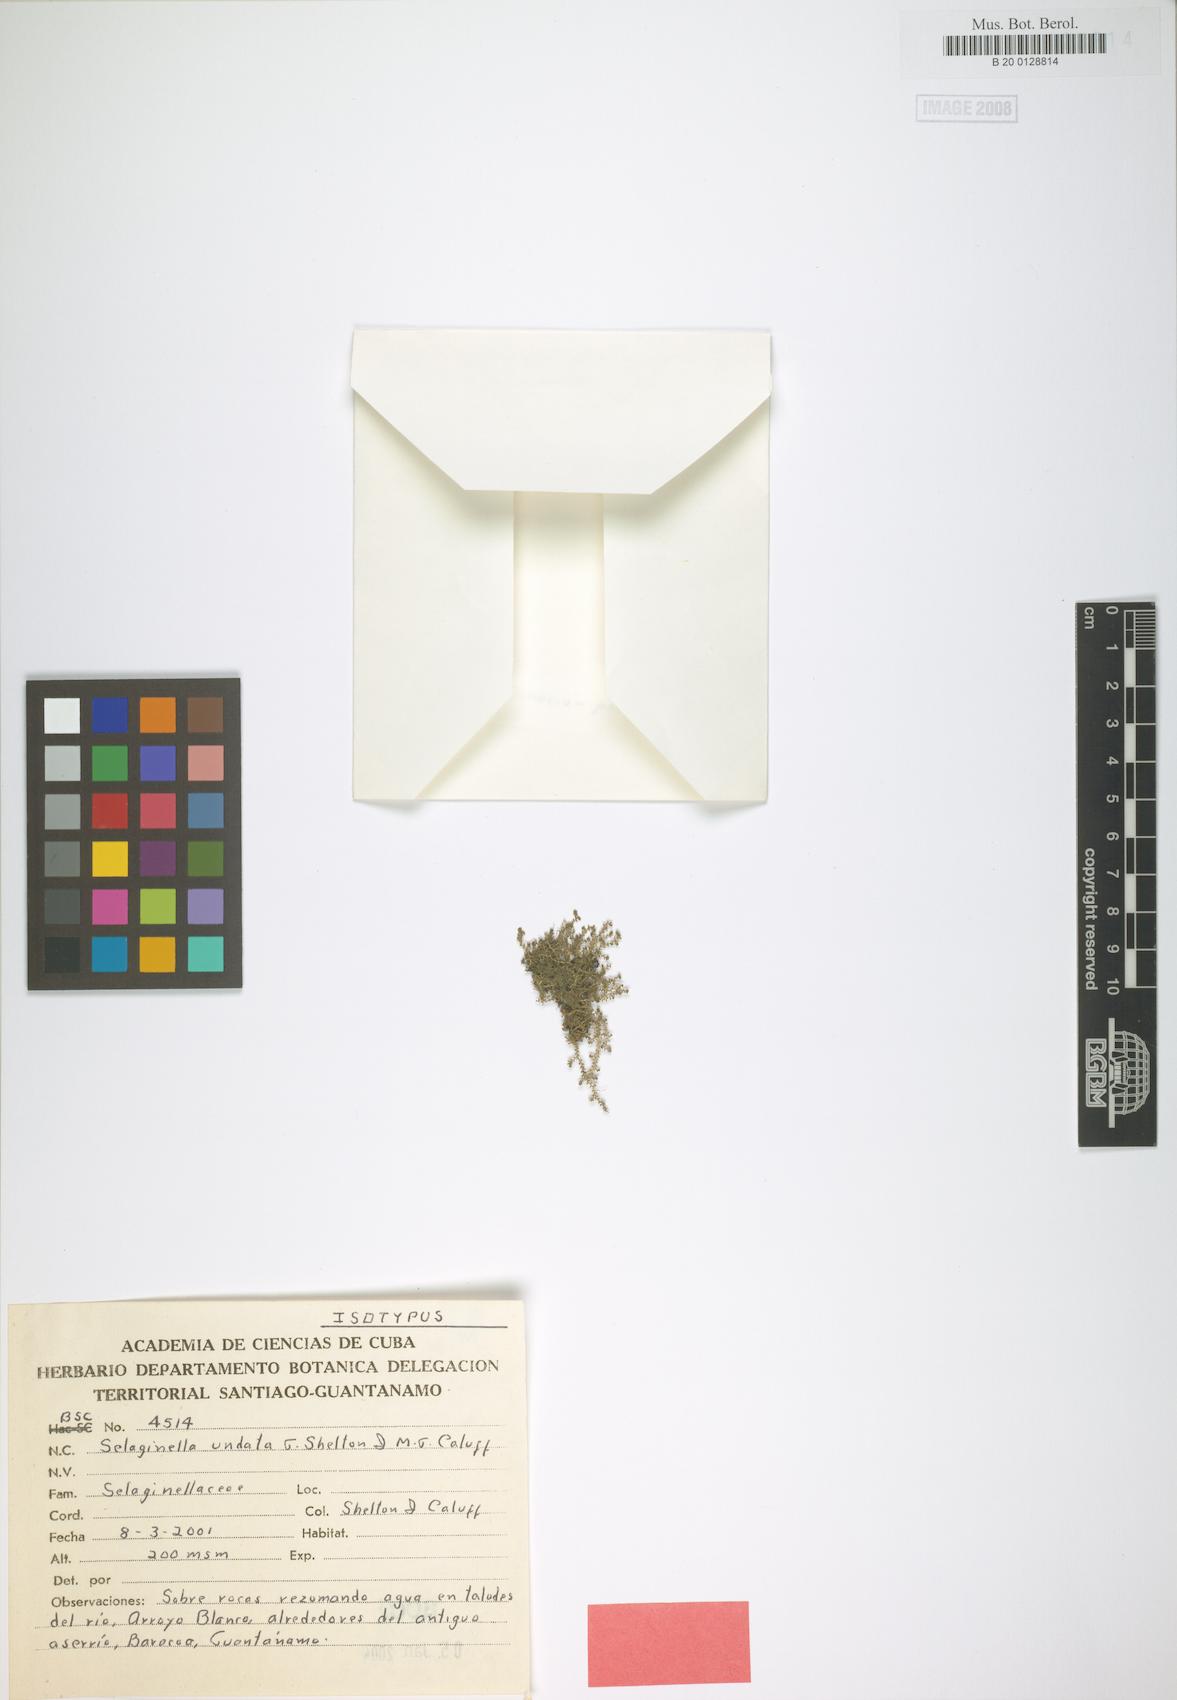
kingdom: Plantae
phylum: Tracheophyta
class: Lycopodiopsida
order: Selaginellales
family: Selaginellaceae
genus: Selaginella
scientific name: Selaginella undata
